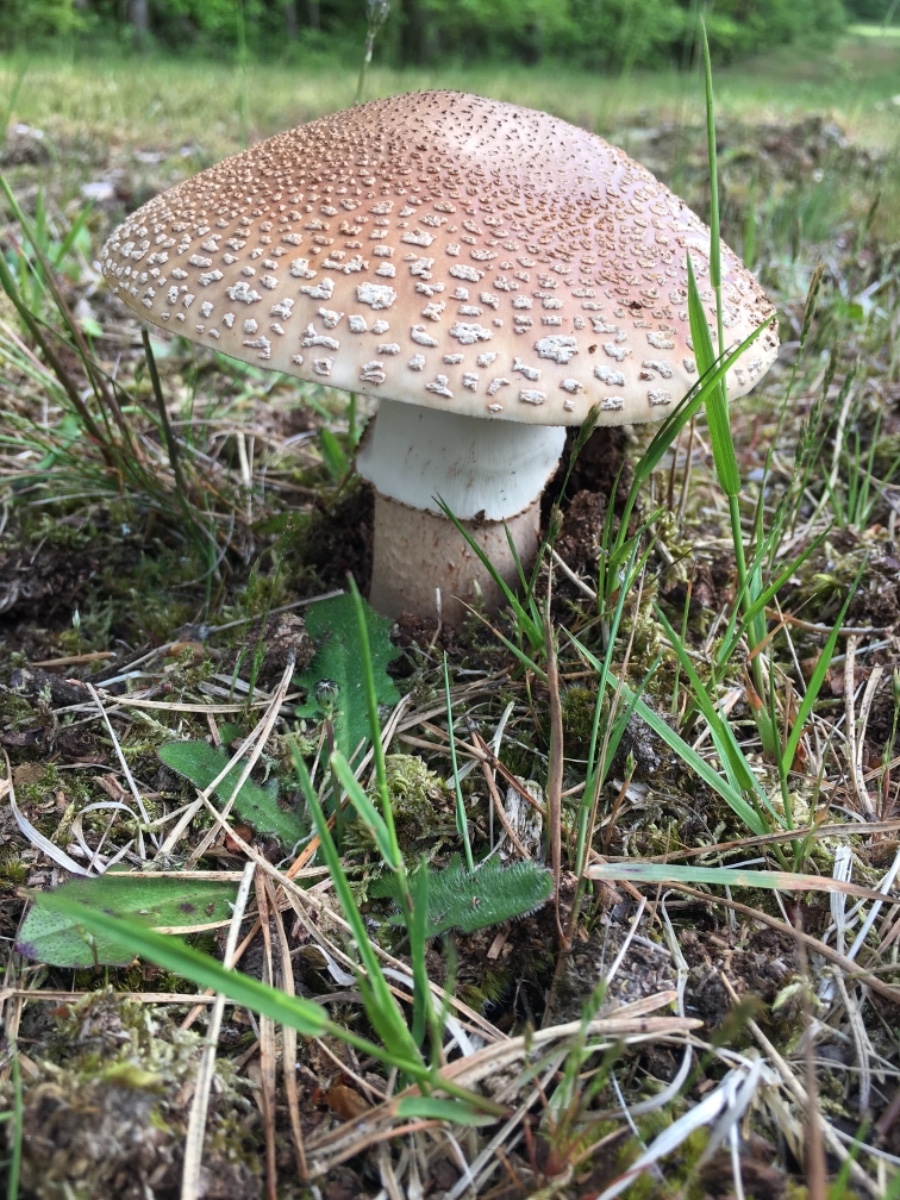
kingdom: Fungi
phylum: Basidiomycota
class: Agaricomycetes
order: Agaricales
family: Amanitaceae
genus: Amanita
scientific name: Amanita rubescens
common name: rødmende fluesvamp
